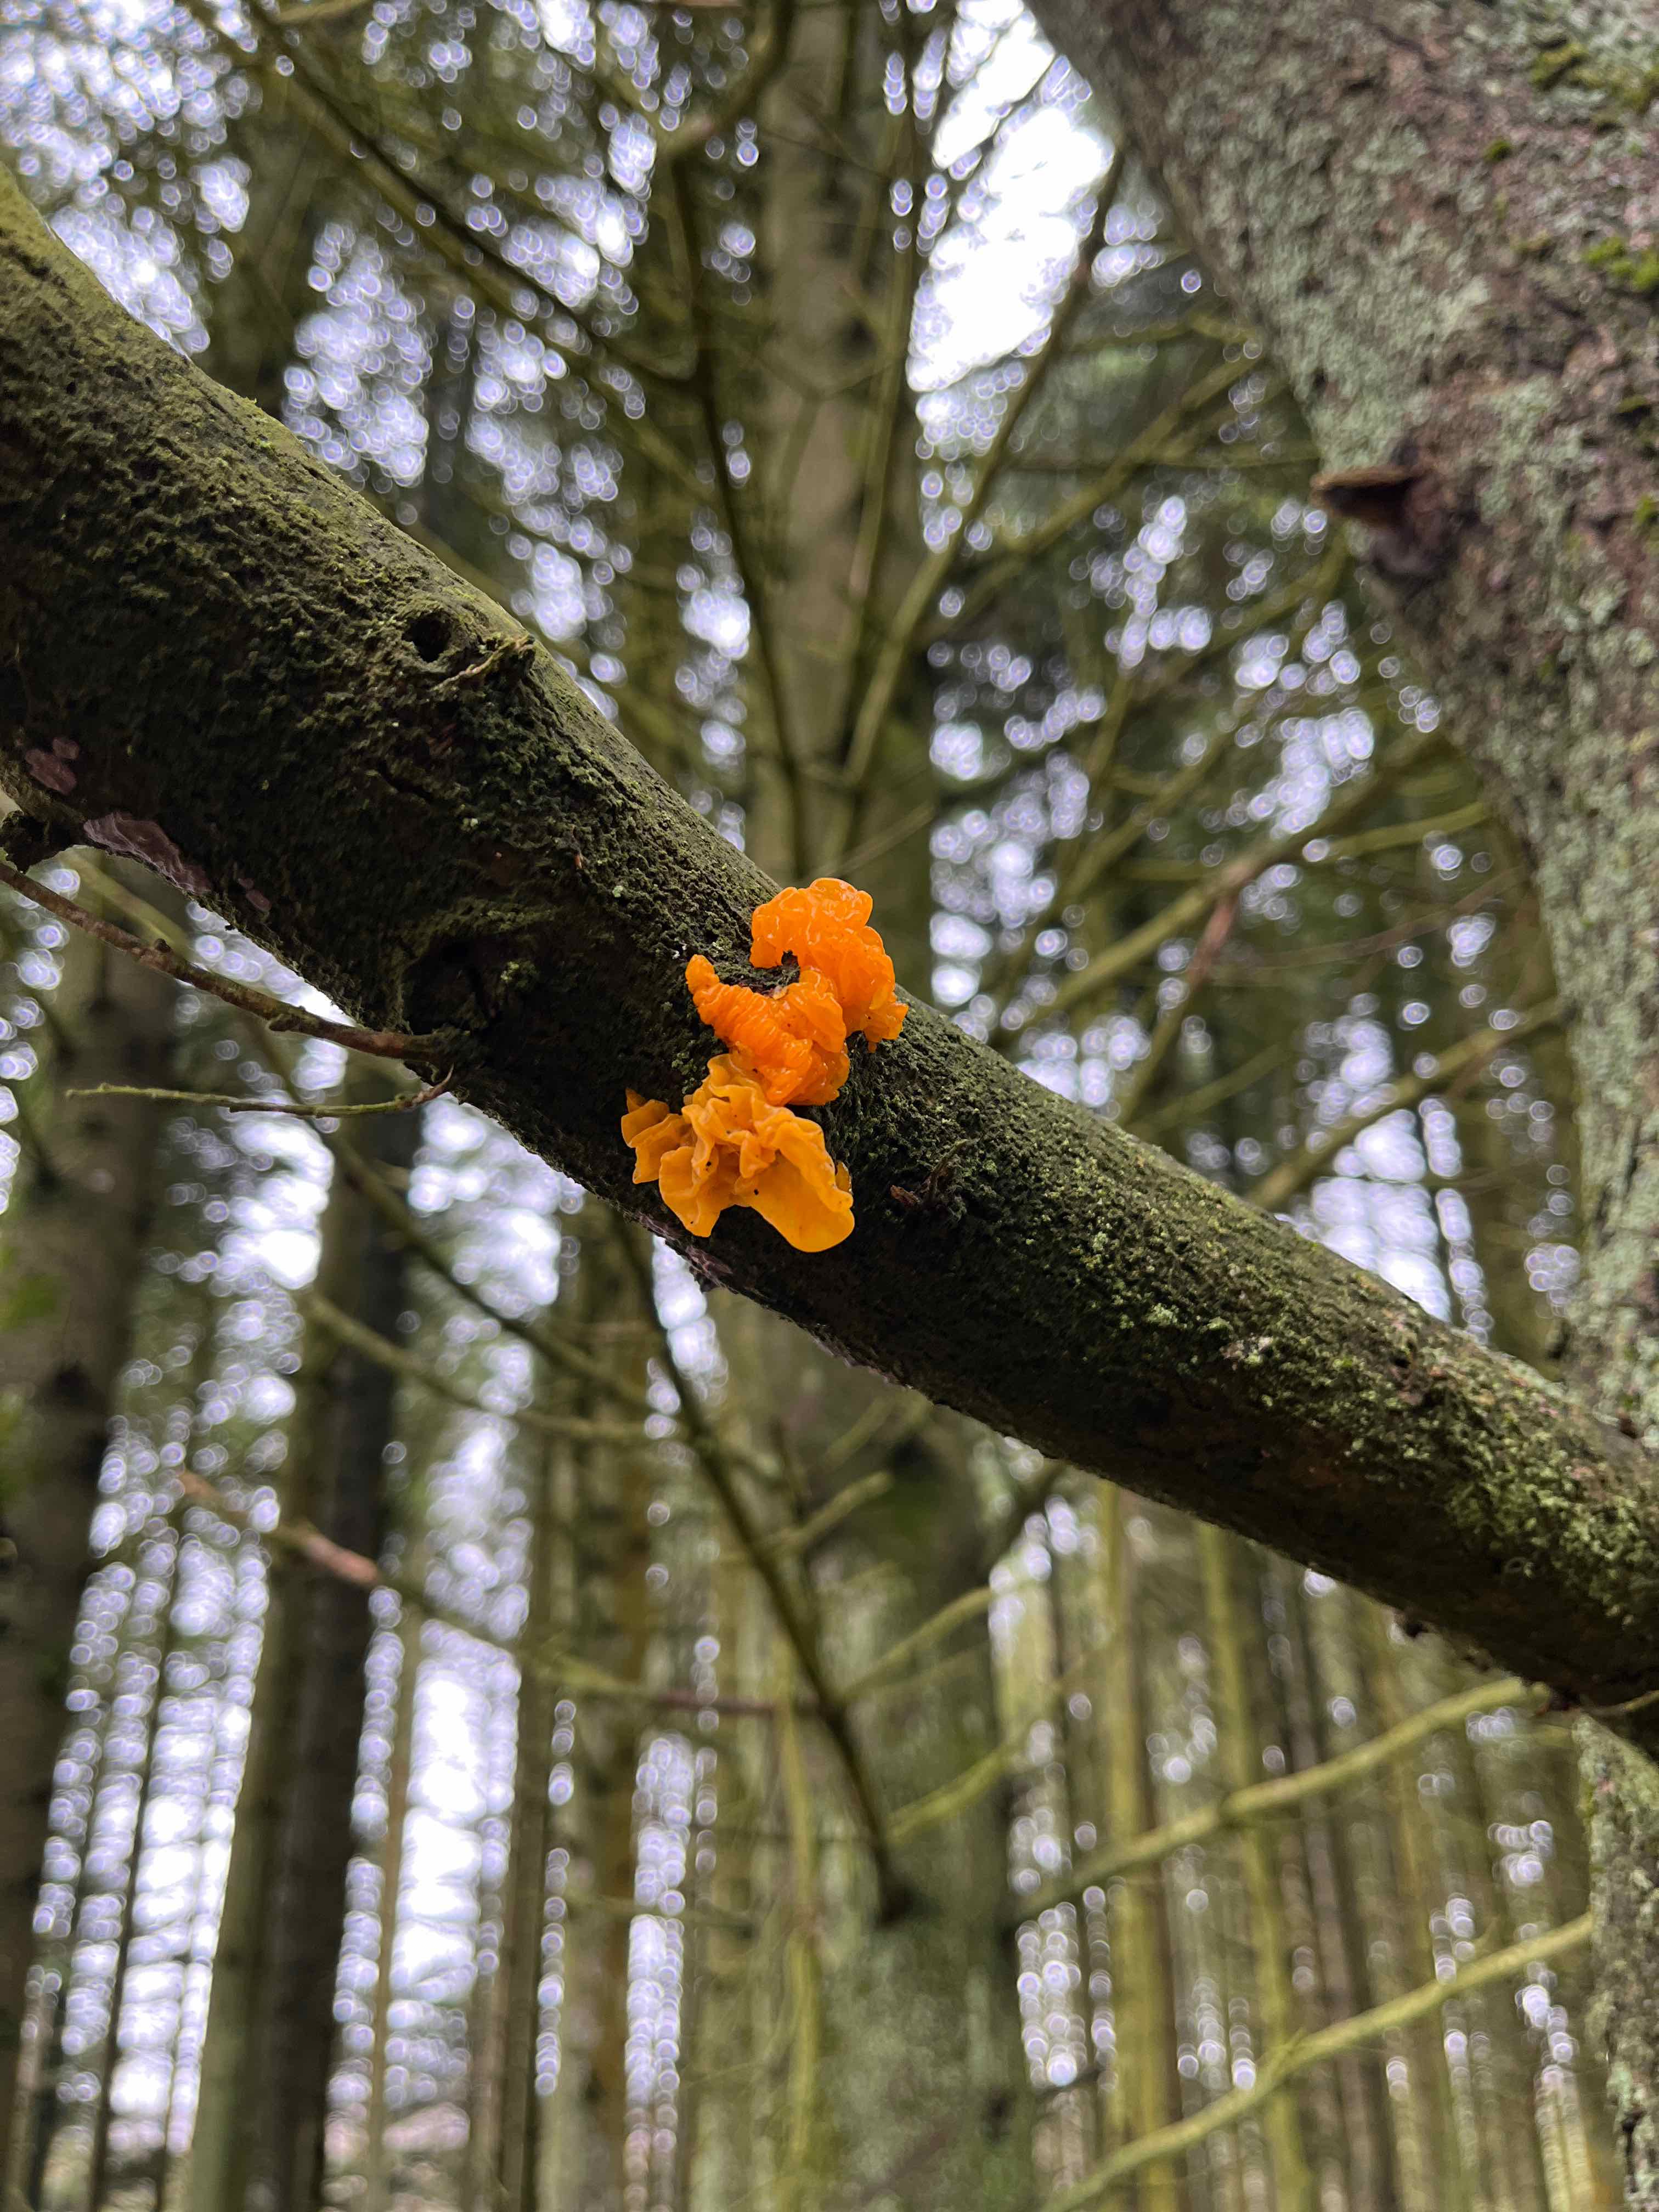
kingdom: Fungi
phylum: Basidiomycota
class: Tremellomycetes
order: Tremellales
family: Tremellaceae
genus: Tremella
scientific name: Tremella mesenterica
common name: gul bævresvamp
